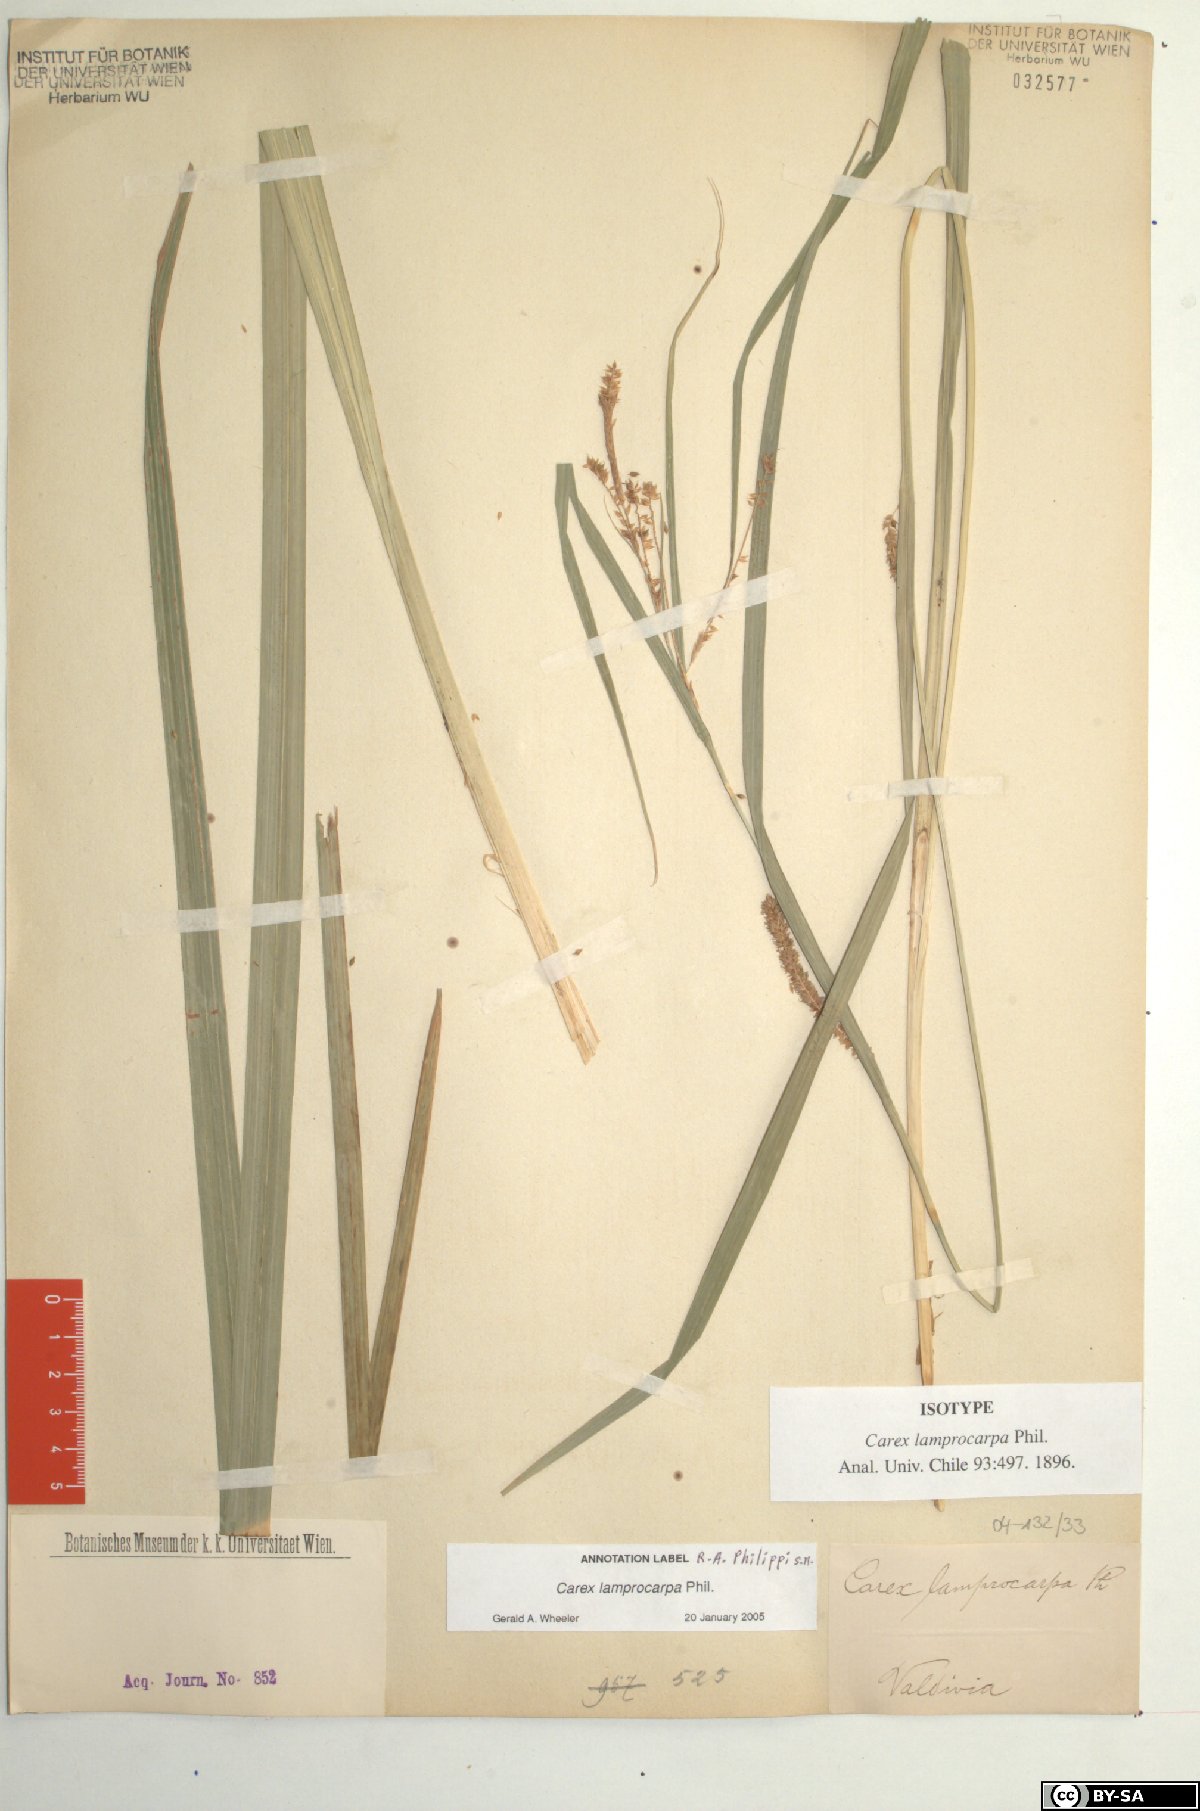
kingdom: Plantae
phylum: Tracheophyta
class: Liliopsida
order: Poales
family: Cyperaceae
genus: Carex
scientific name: Carex lamprocarpa
